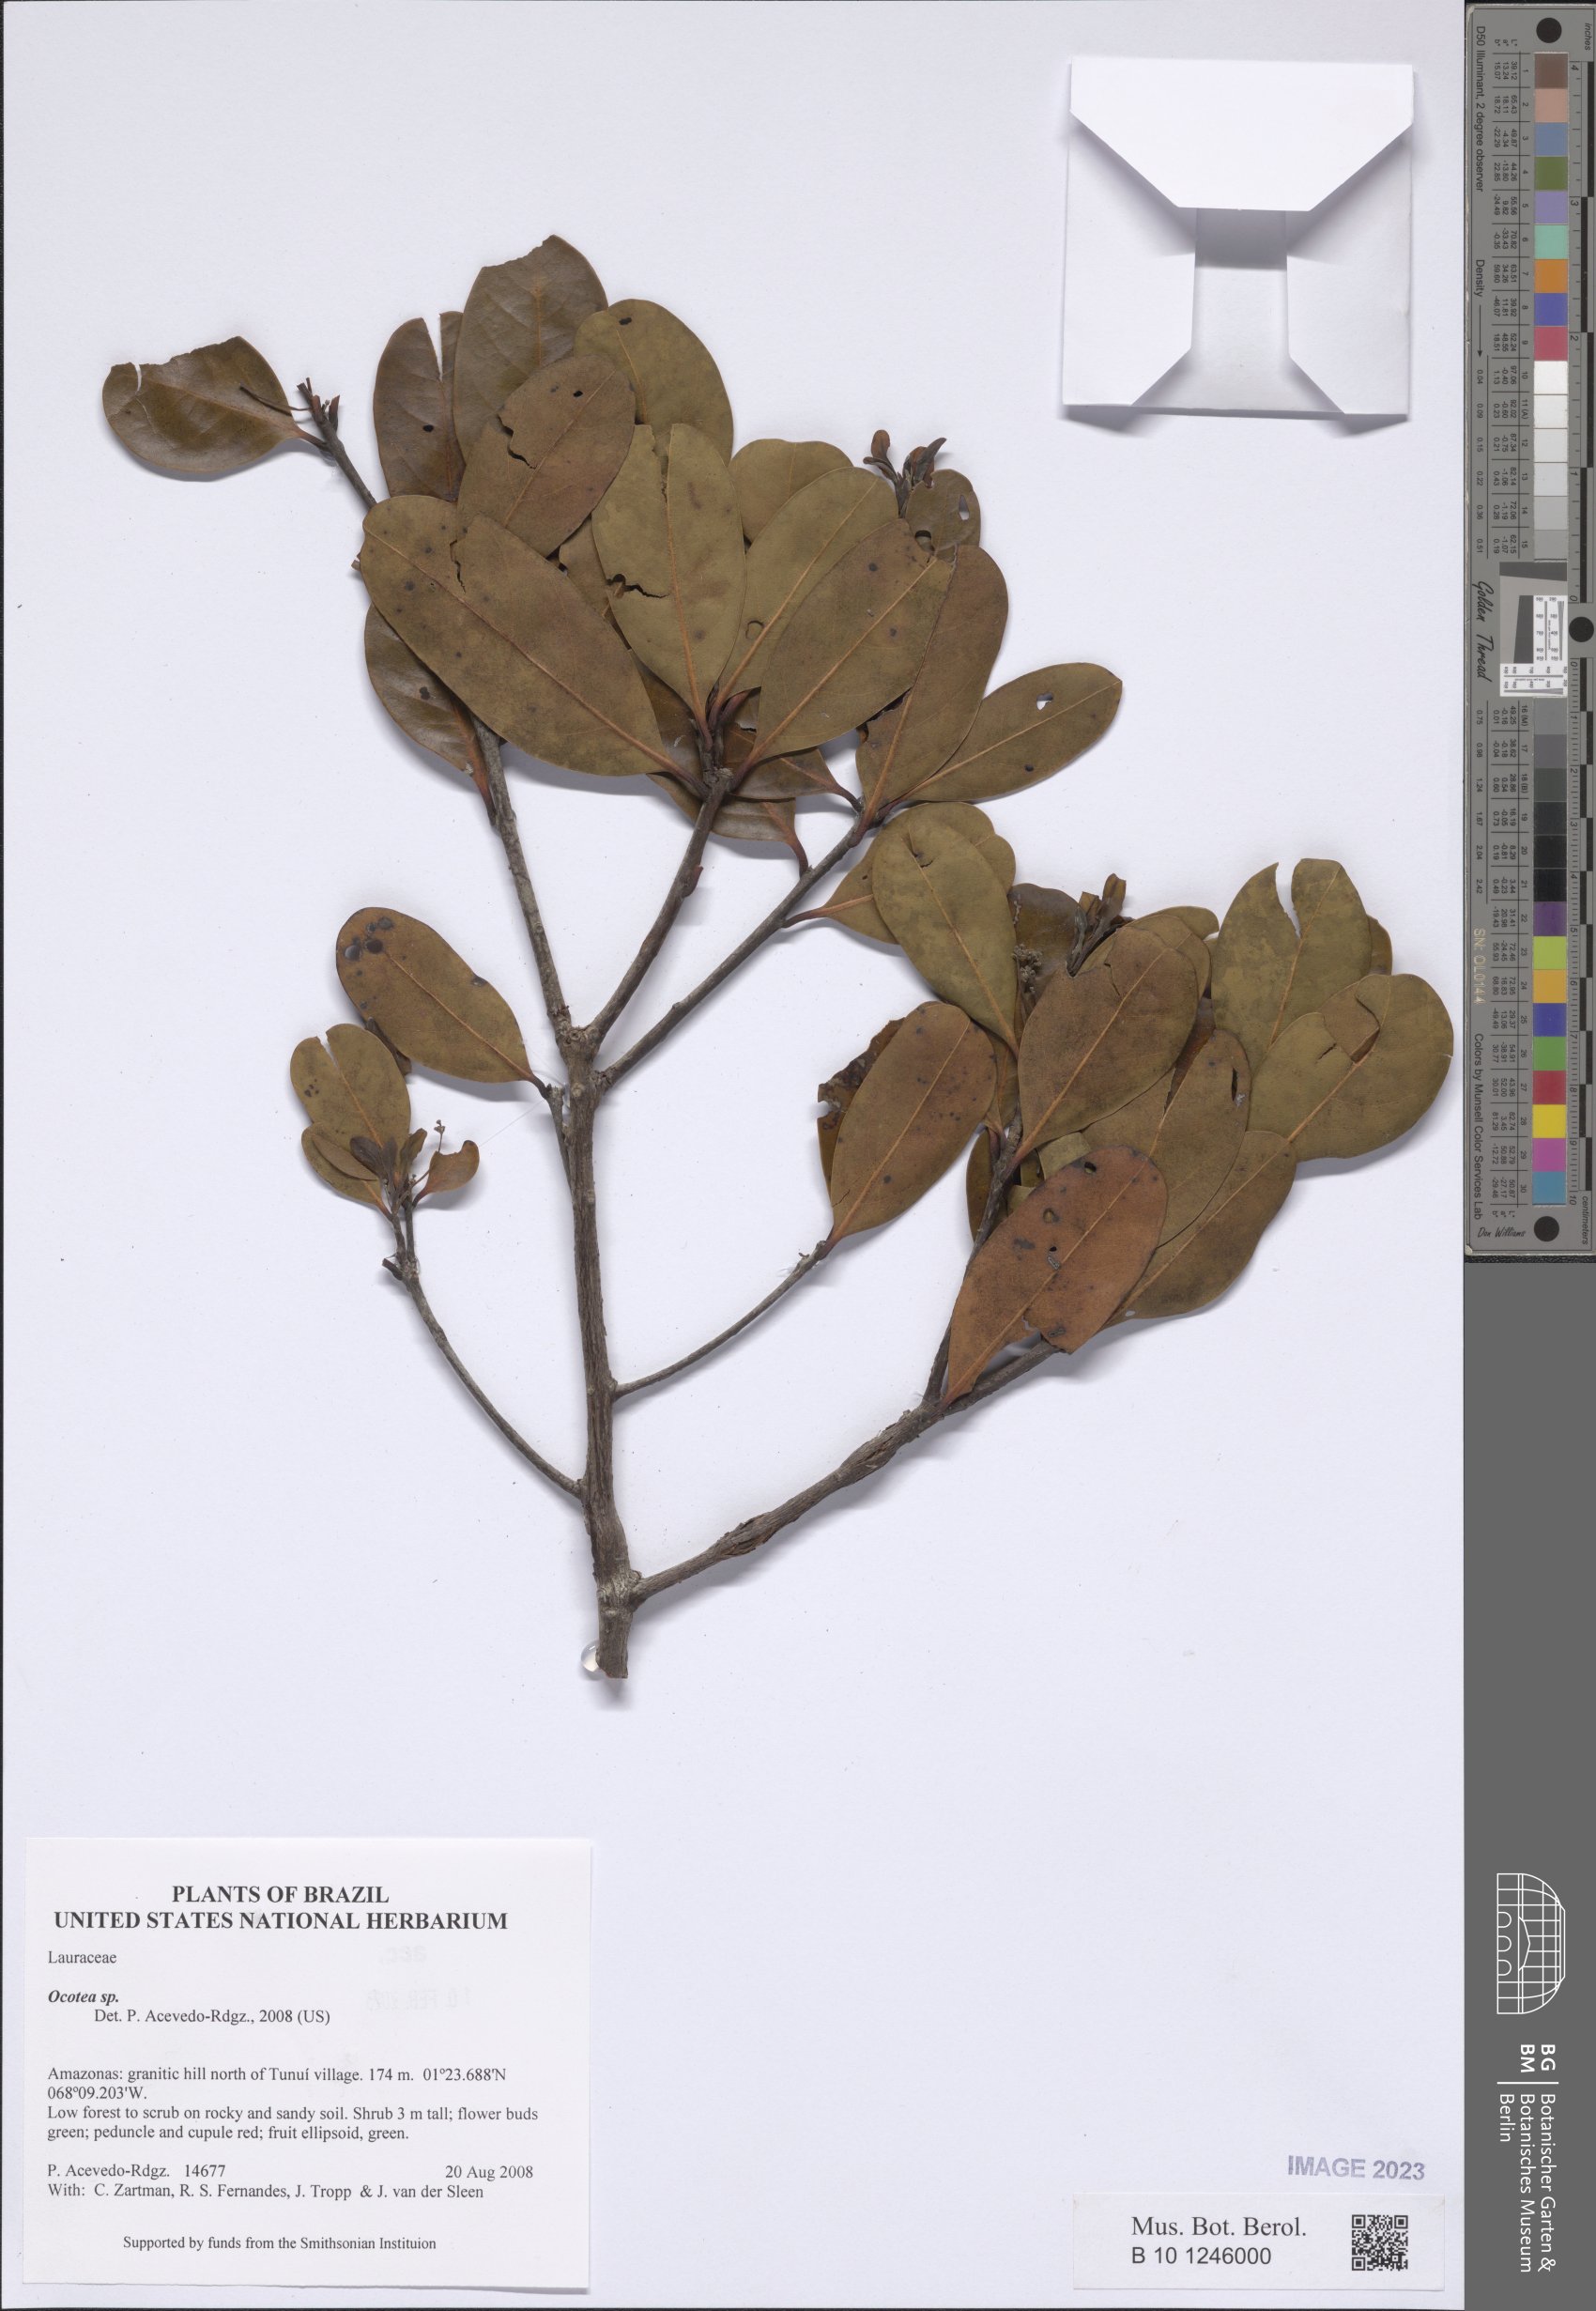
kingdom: Plantae
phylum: Tracheophyta
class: Magnoliopsida
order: Laurales
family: Lauraceae
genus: Ocotea
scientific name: Ocotea
